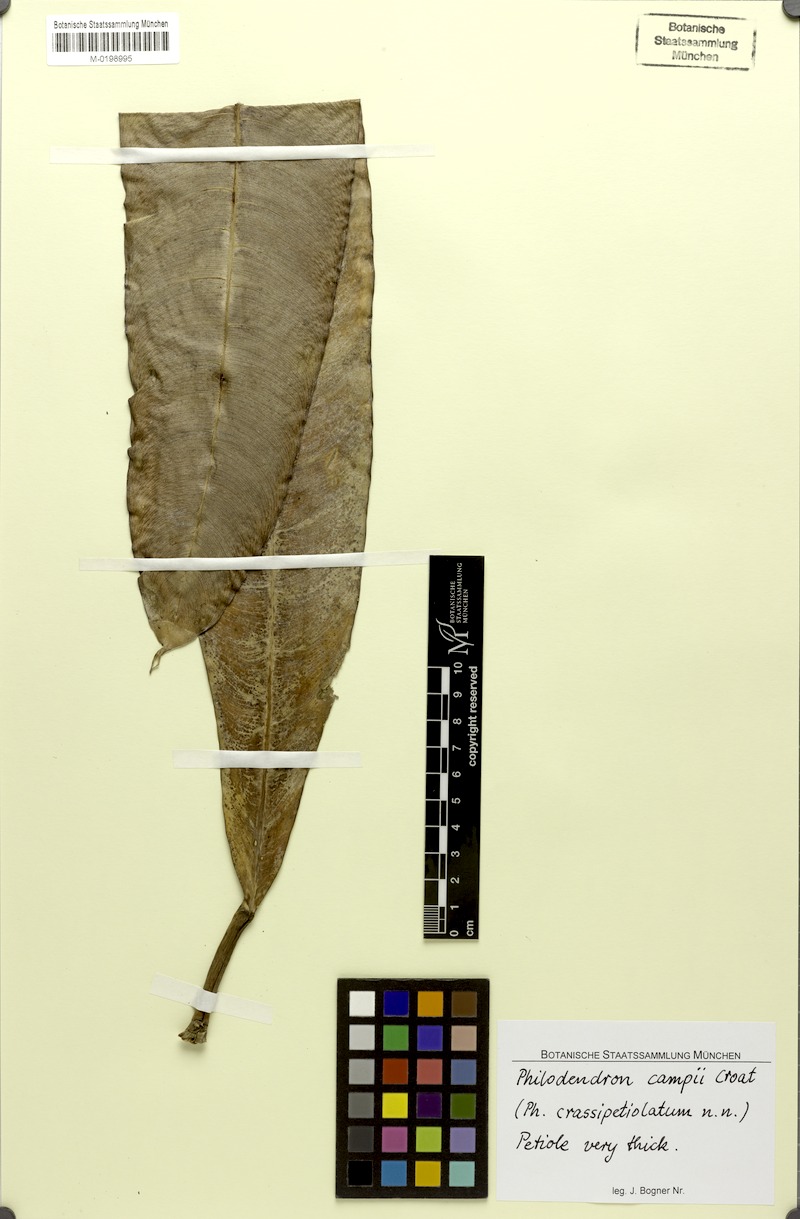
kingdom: Plantae
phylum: Tracheophyta
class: Liliopsida
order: Alismatales
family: Araceae
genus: Philodendron
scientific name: Philodendron campii
